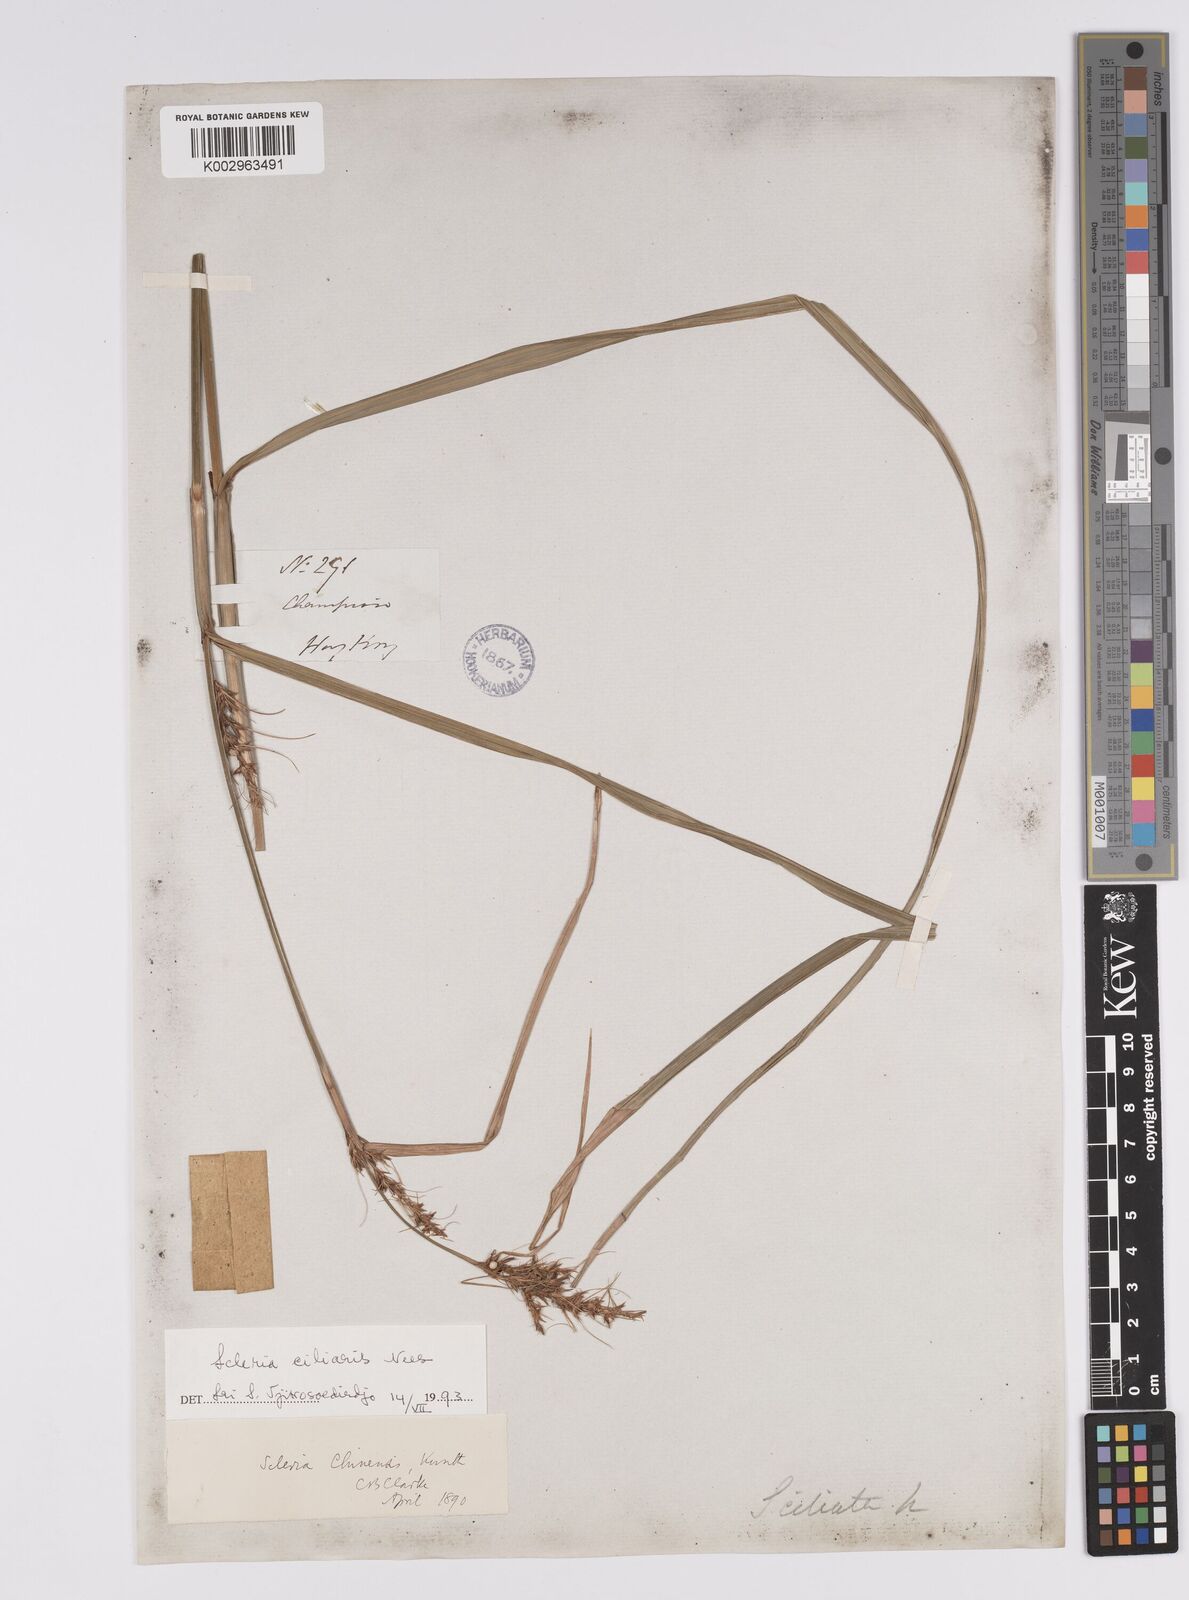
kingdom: Plantae
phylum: Tracheophyta
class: Liliopsida
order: Poales
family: Cyperaceae
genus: Scleria
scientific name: Scleria ciliaris
